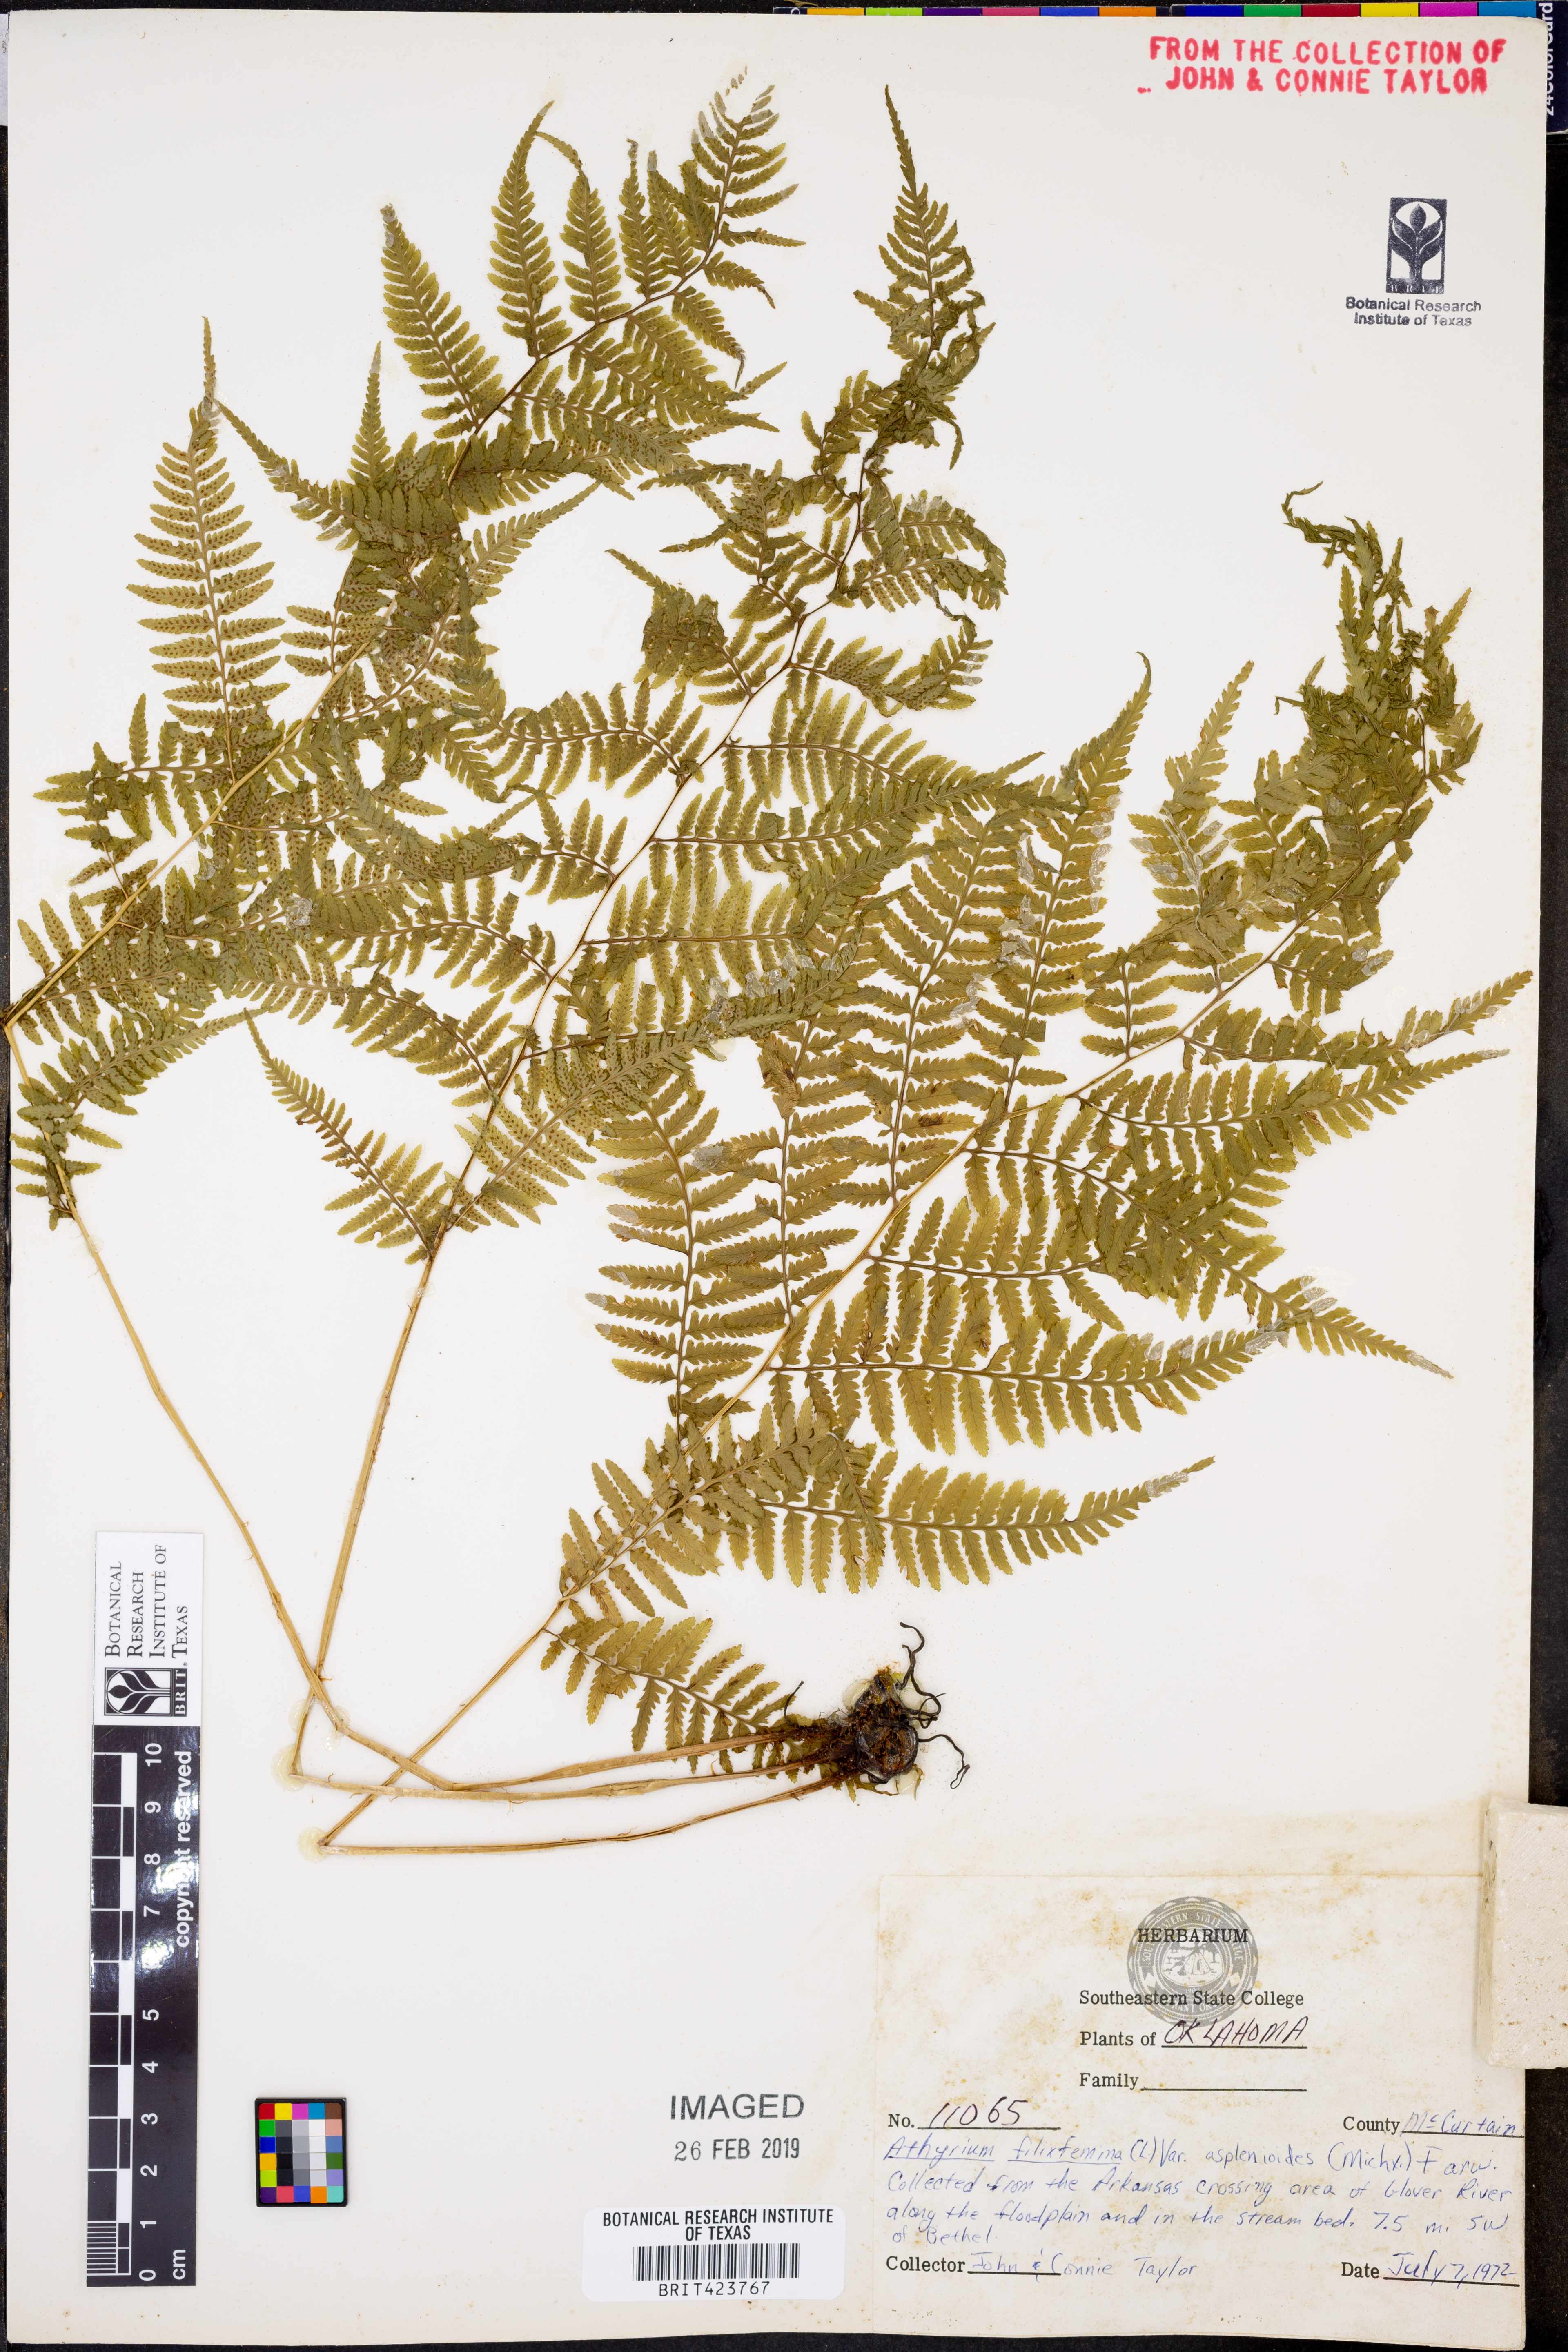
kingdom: Plantae
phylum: Tracheophyta
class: Polypodiopsida
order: Polypodiales
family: Athyriaceae
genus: Athyrium
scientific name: Athyrium filix-femina
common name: Lady fern
